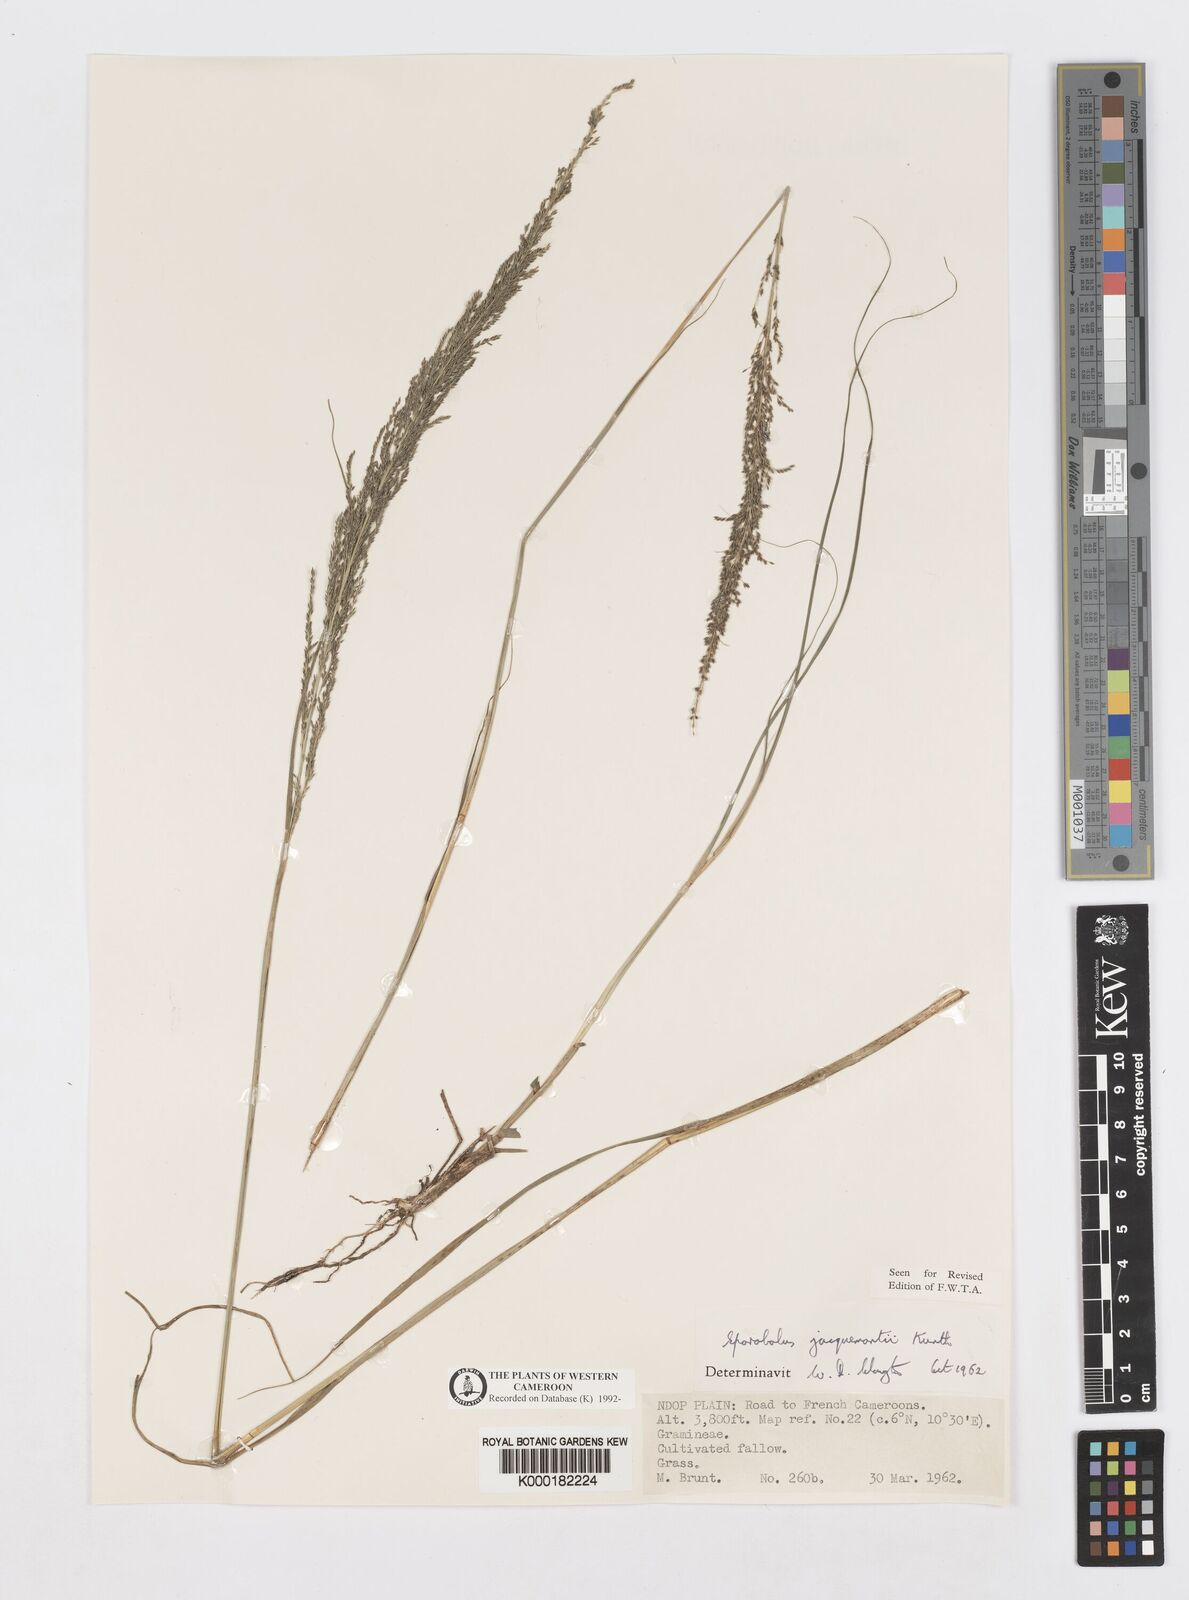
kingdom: Plantae
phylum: Tracheophyta
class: Liliopsida
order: Poales
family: Poaceae
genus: Sporobolus
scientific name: Sporobolus pyramidalis
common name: West indian dropseed
